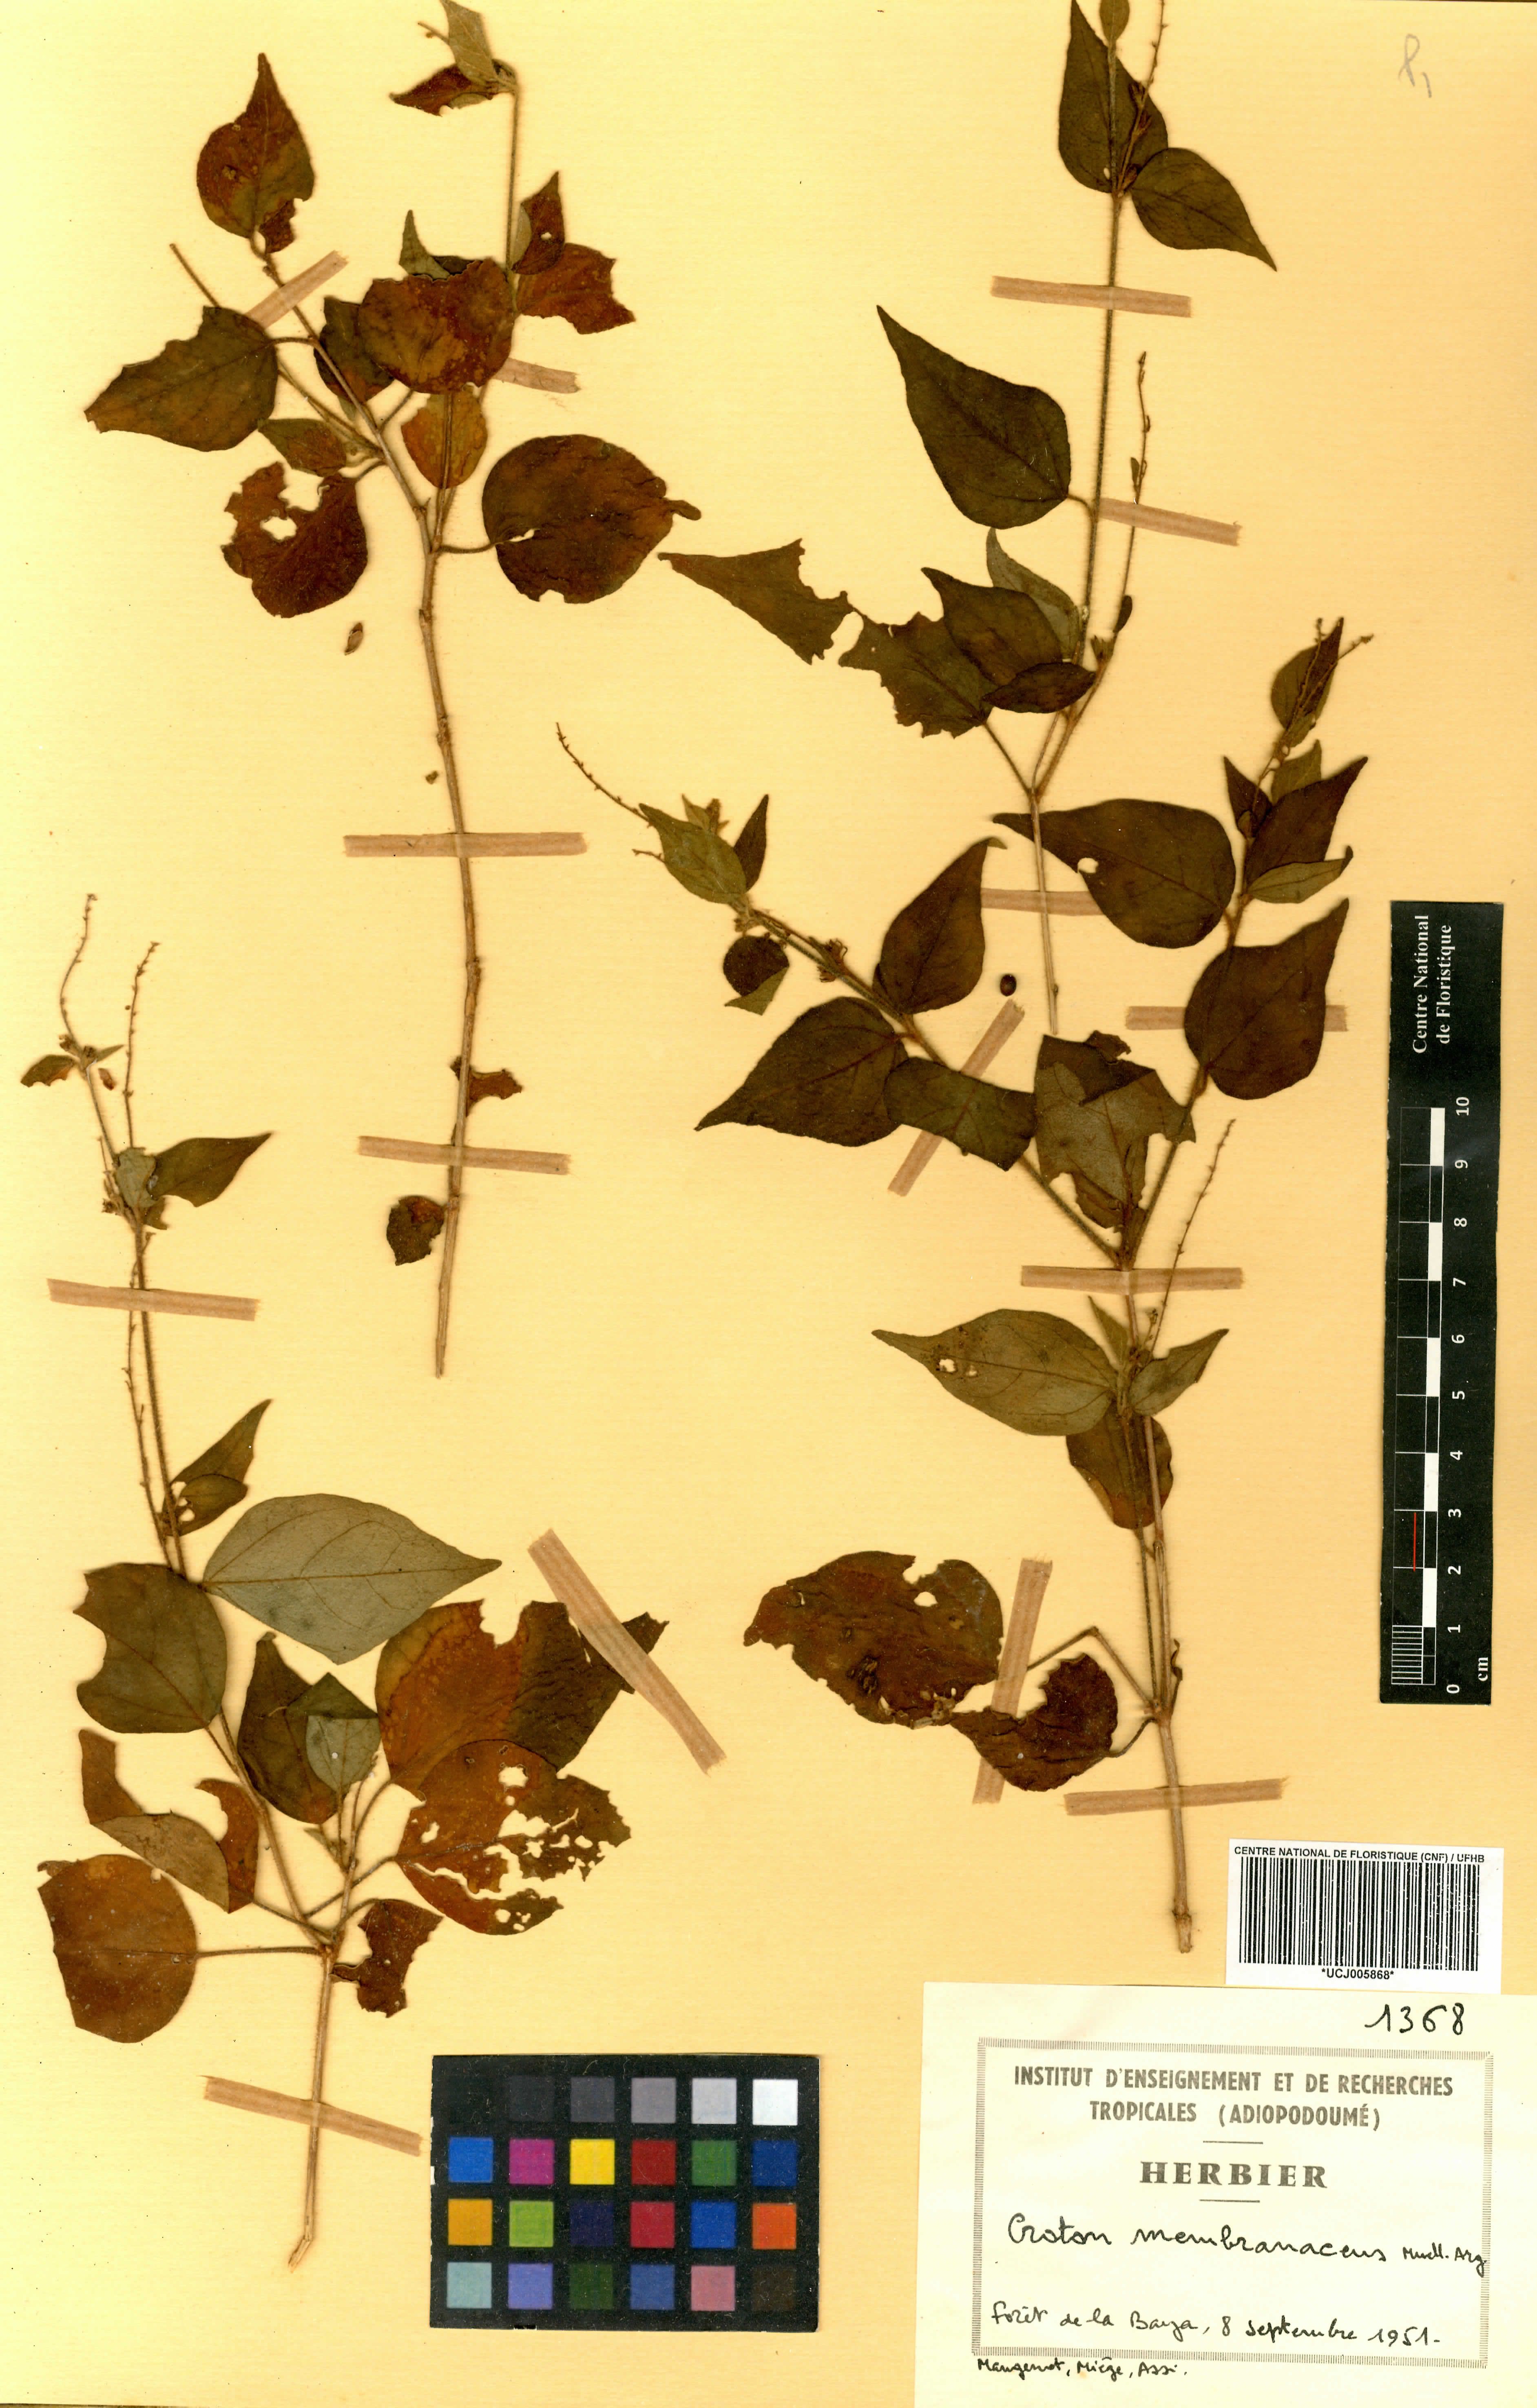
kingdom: Plantae
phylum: Tracheophyta
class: Magnoliopsida
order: Malpighiales
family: Euphorbiaceae
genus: Croton
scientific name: Croton membranaceus
